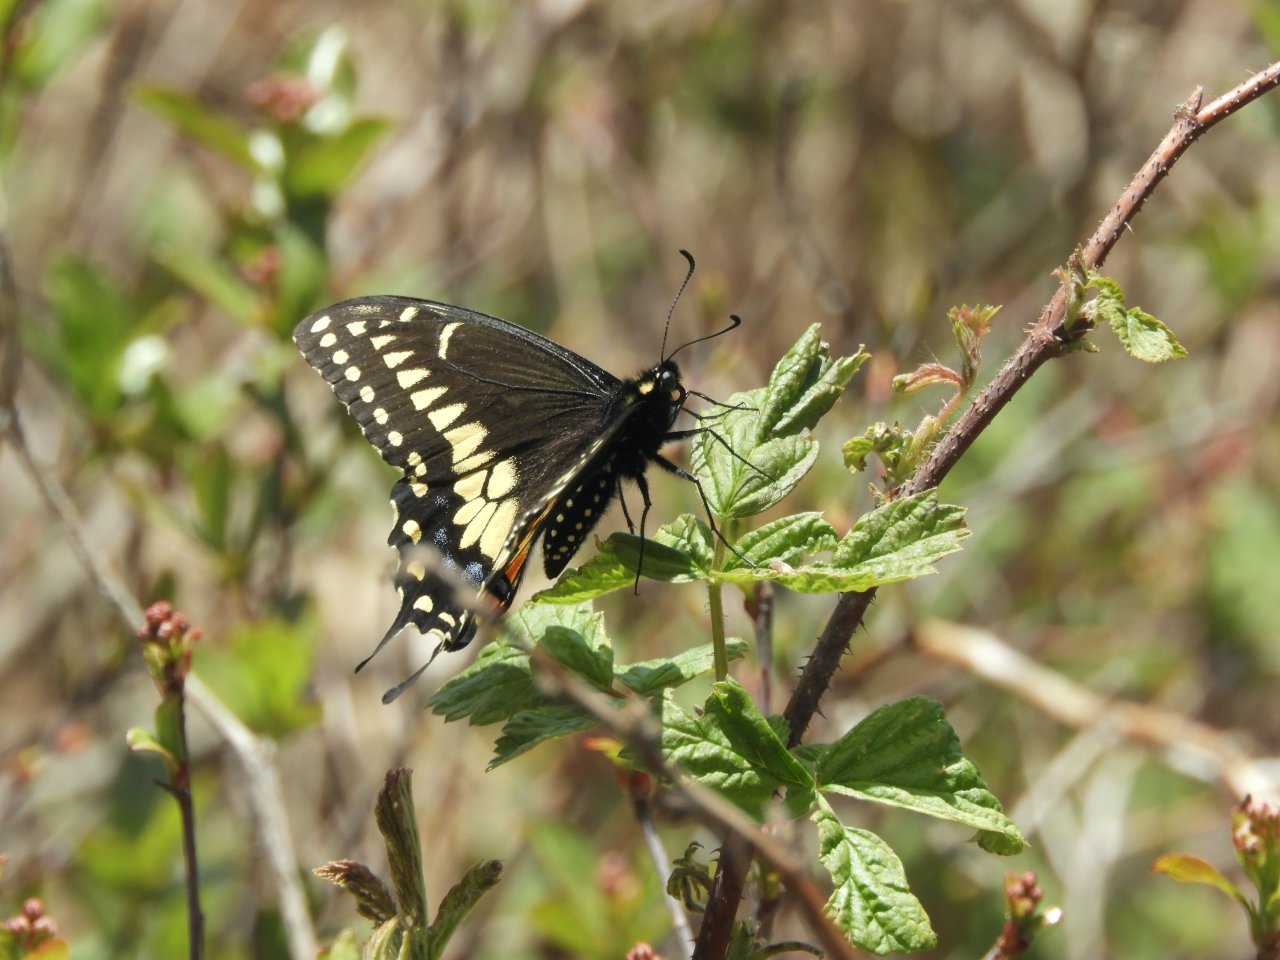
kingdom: Animalia
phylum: Arthropoda
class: Insecta
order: Lepidoptera
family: Papilionidae
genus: Papilio
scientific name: Papilio polyxenes
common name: Black Swallowtail
